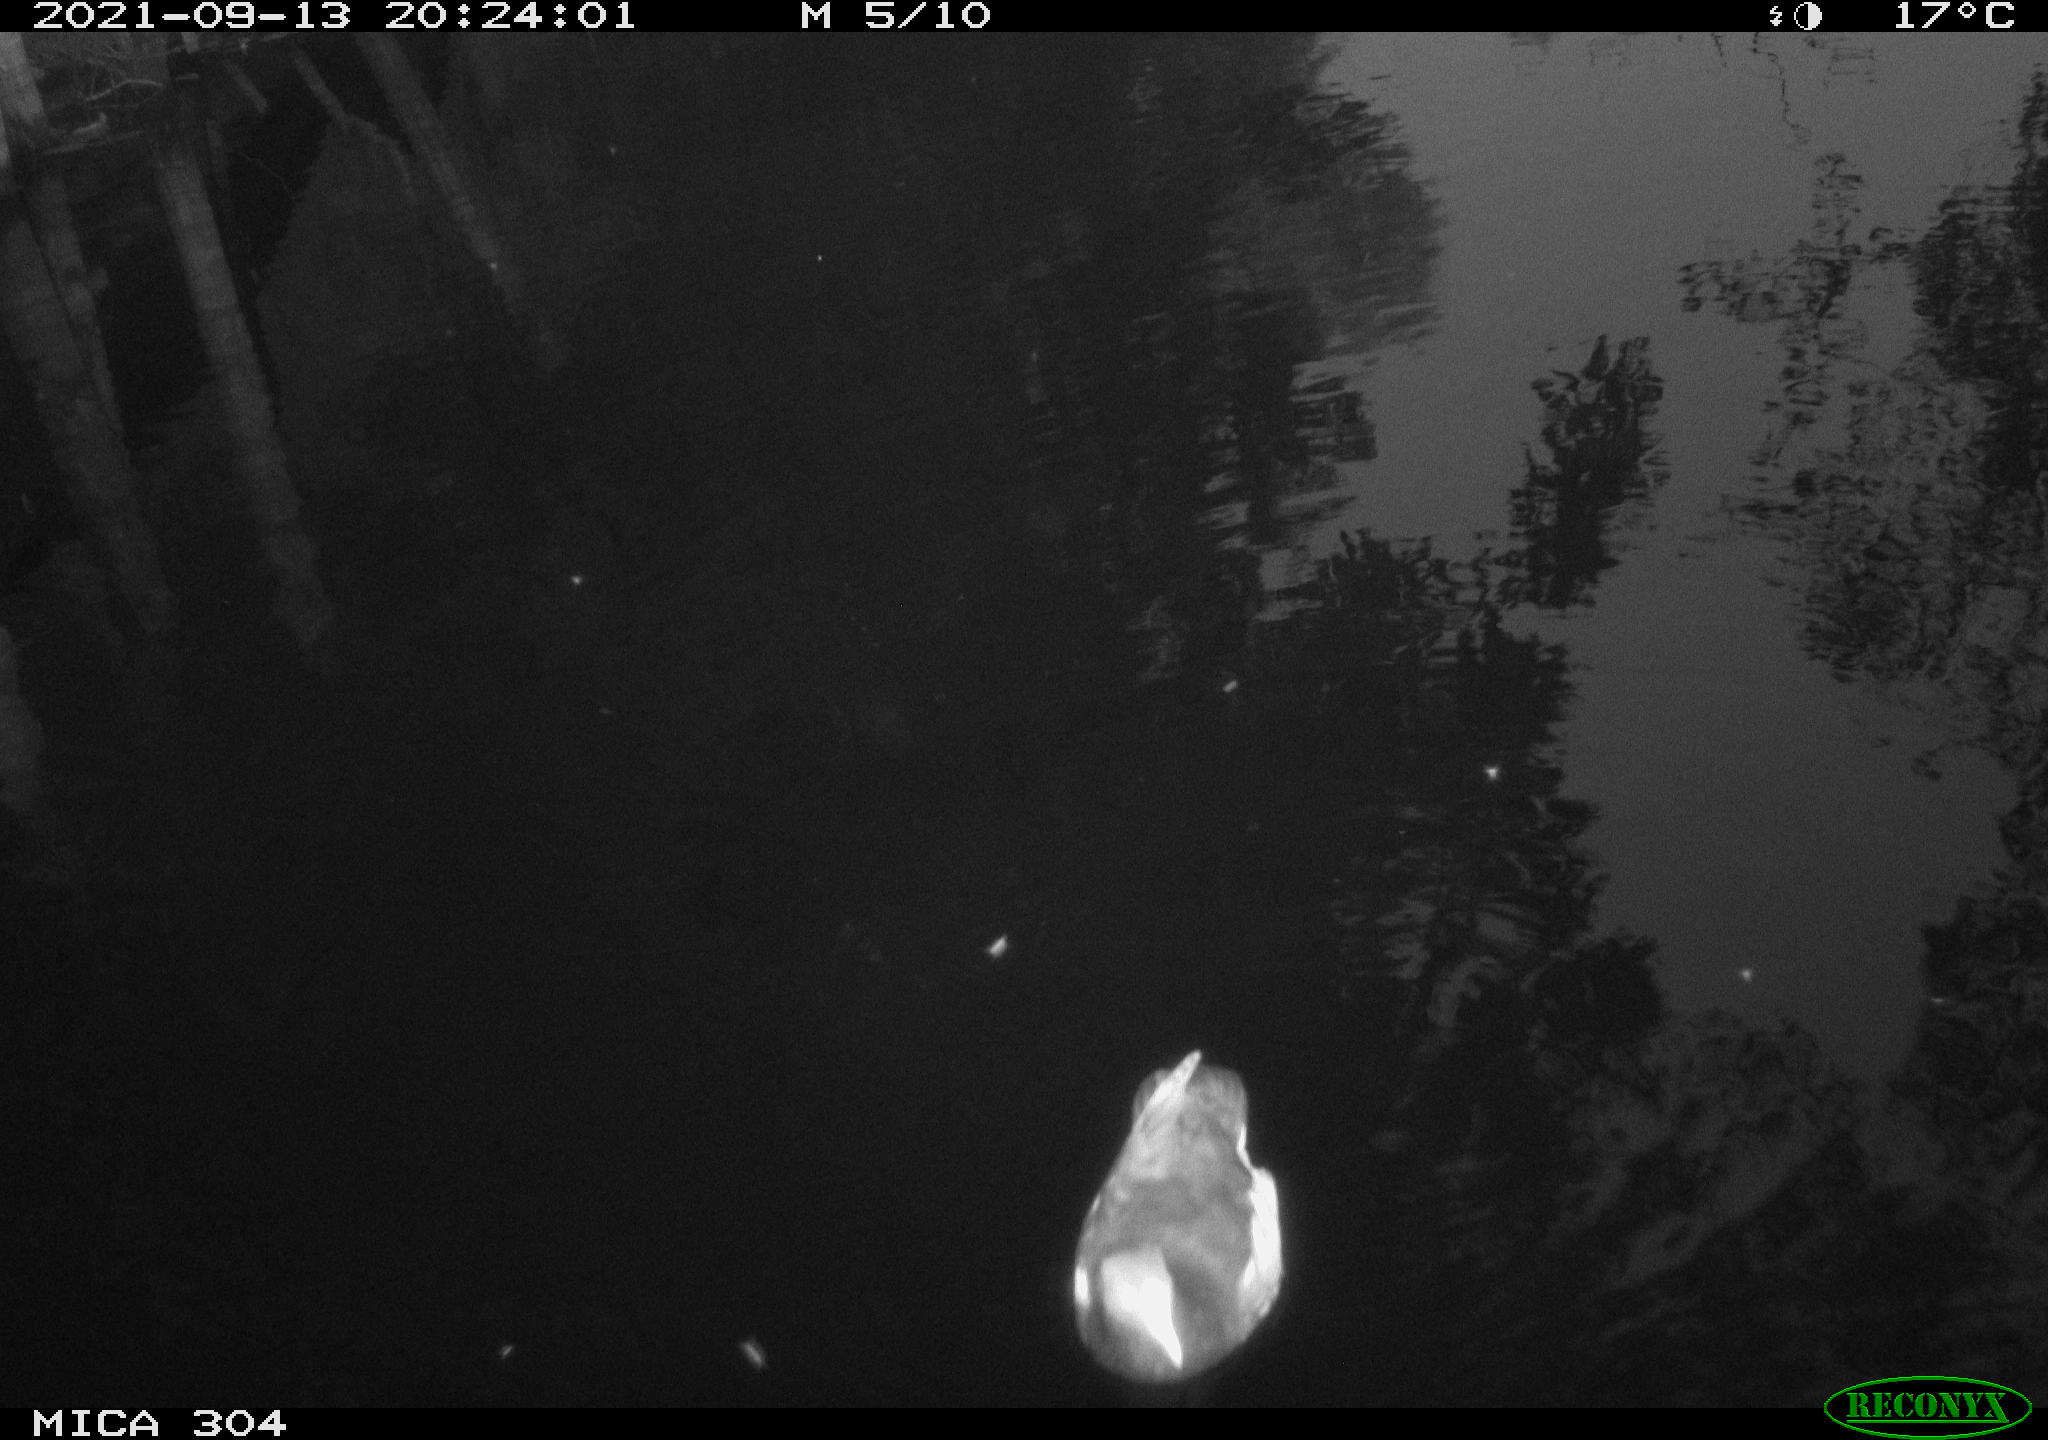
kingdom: Animalia
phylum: Chordata
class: Aves
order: Gruiformes
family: Rallidae
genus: Gallinula
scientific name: Gallinula chloropus
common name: Common moorhen
